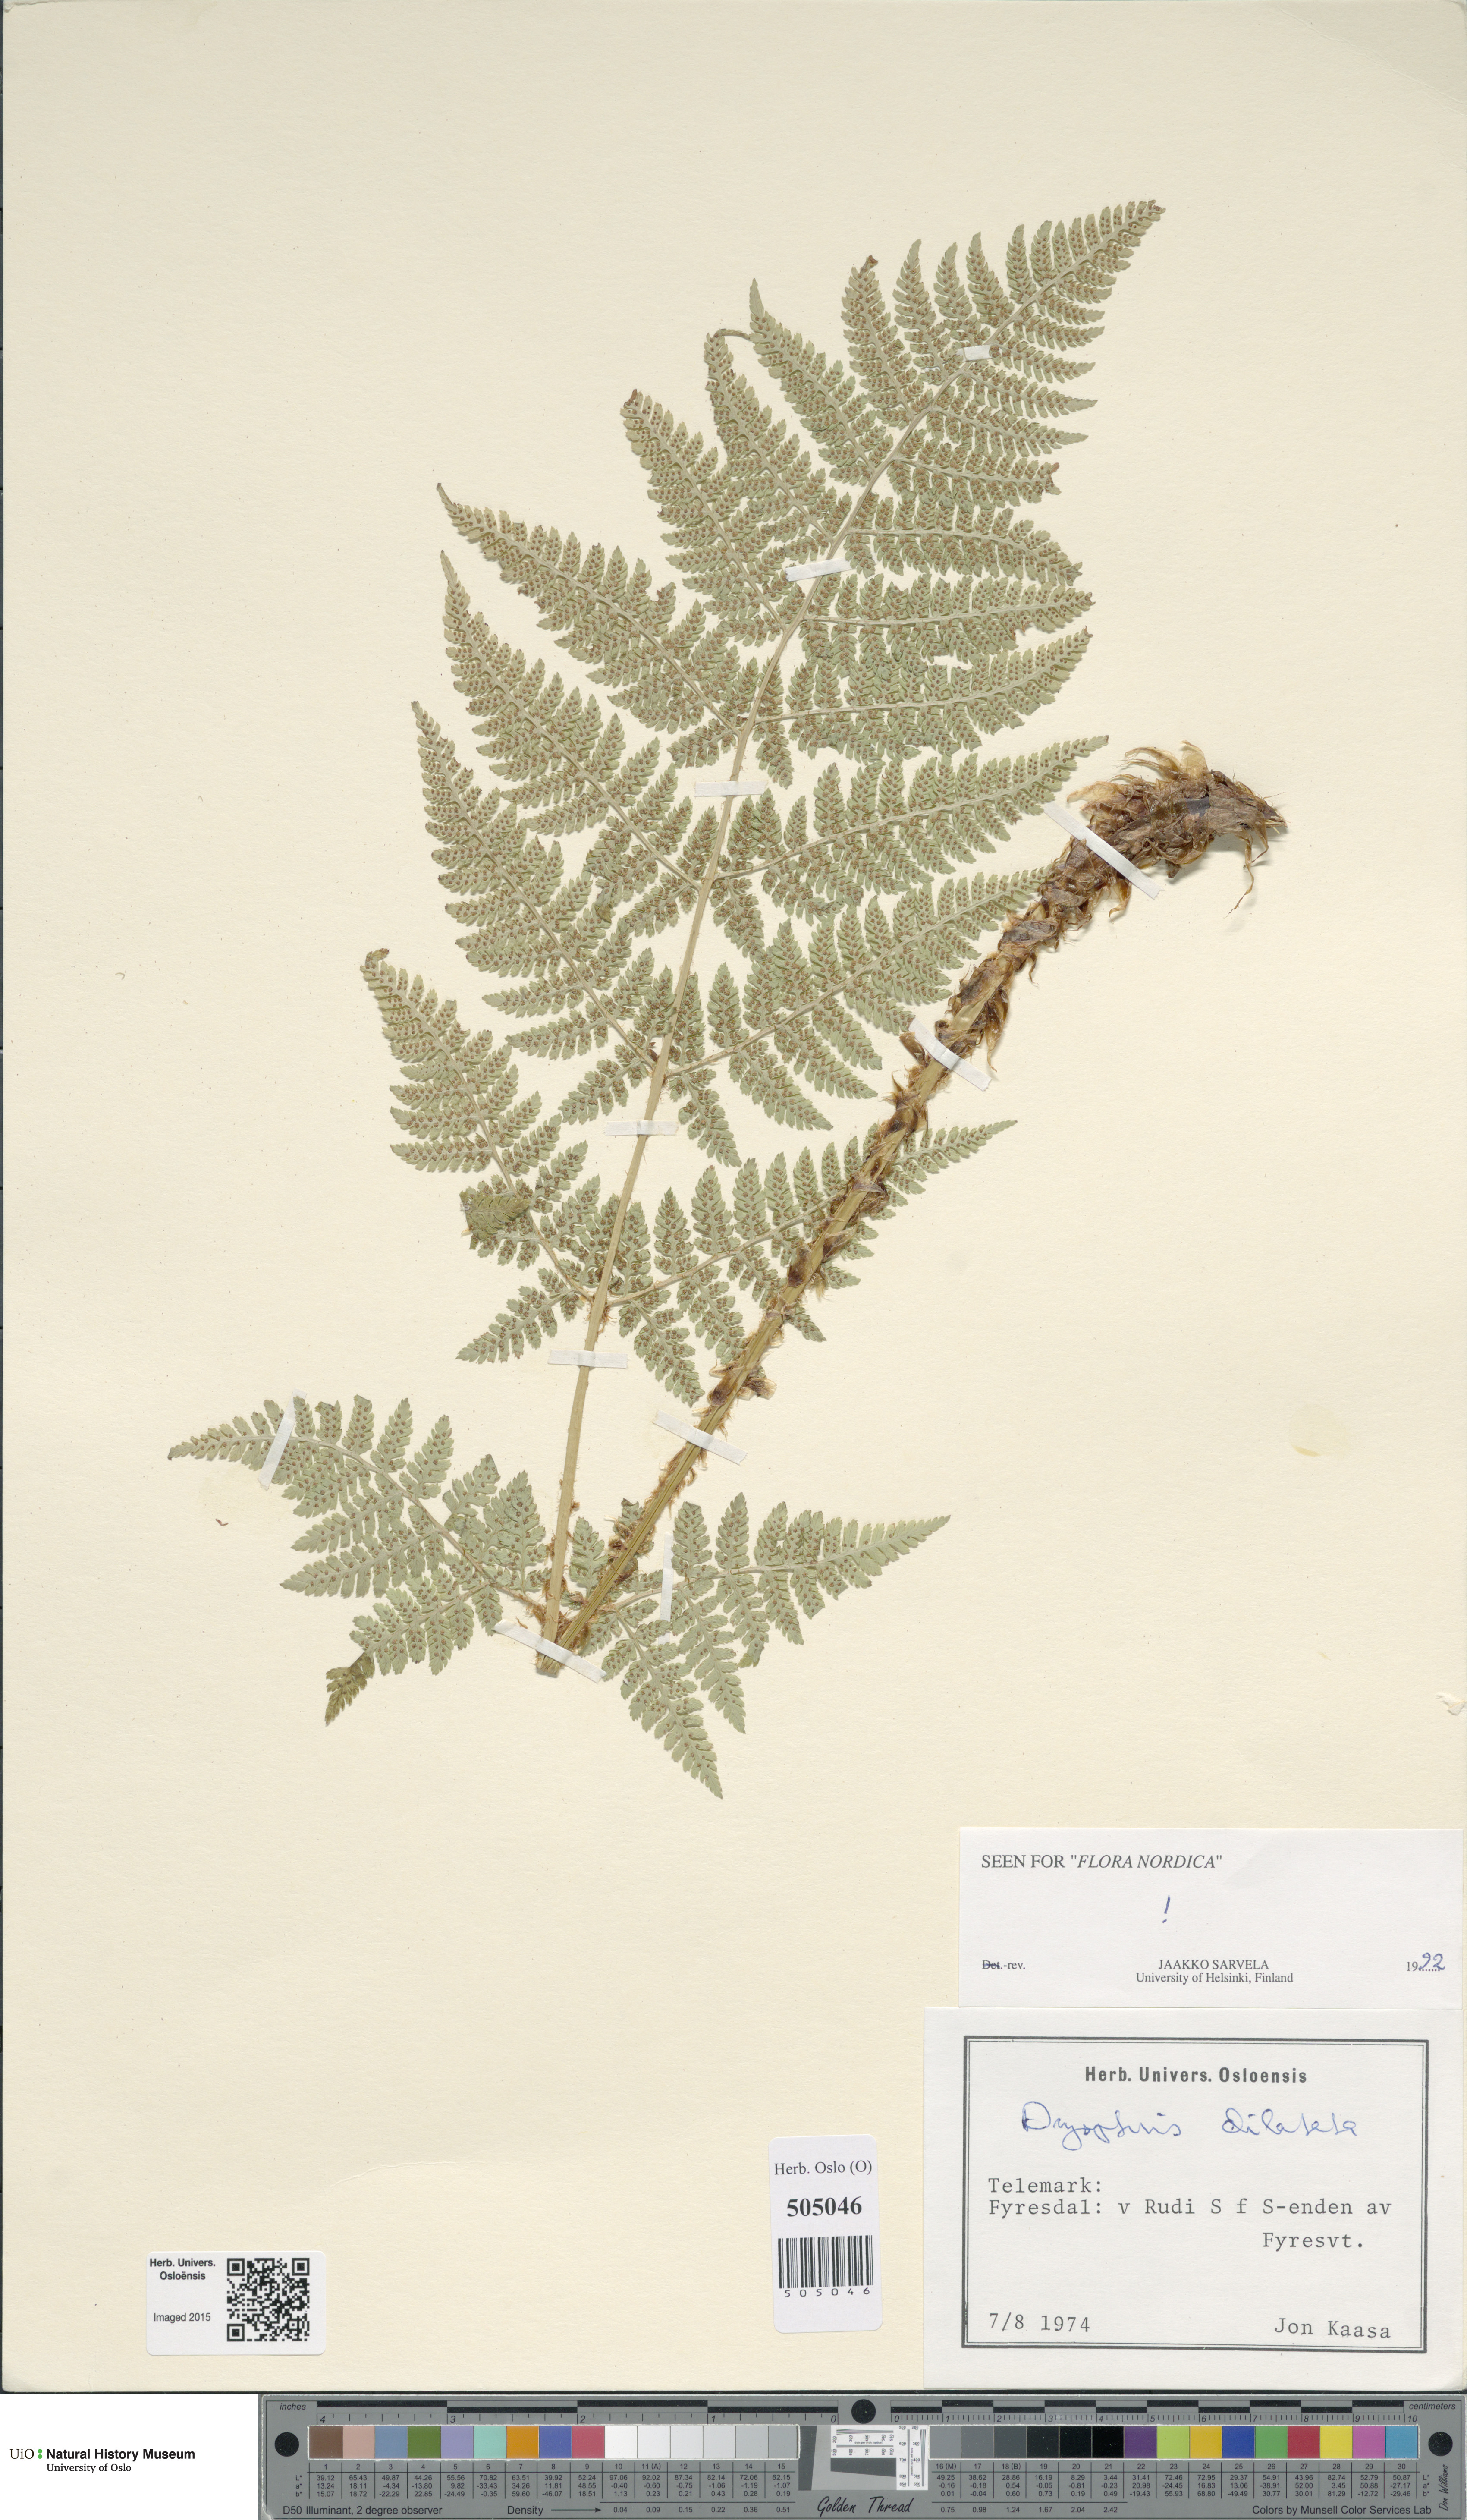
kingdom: Plantae
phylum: Tracheophyta
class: Polypodiopsida
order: Polypodiales
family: Dryopteridaceae
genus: Dryopteris
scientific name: Dryopteris dilatata
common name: Broad buckler-fern
